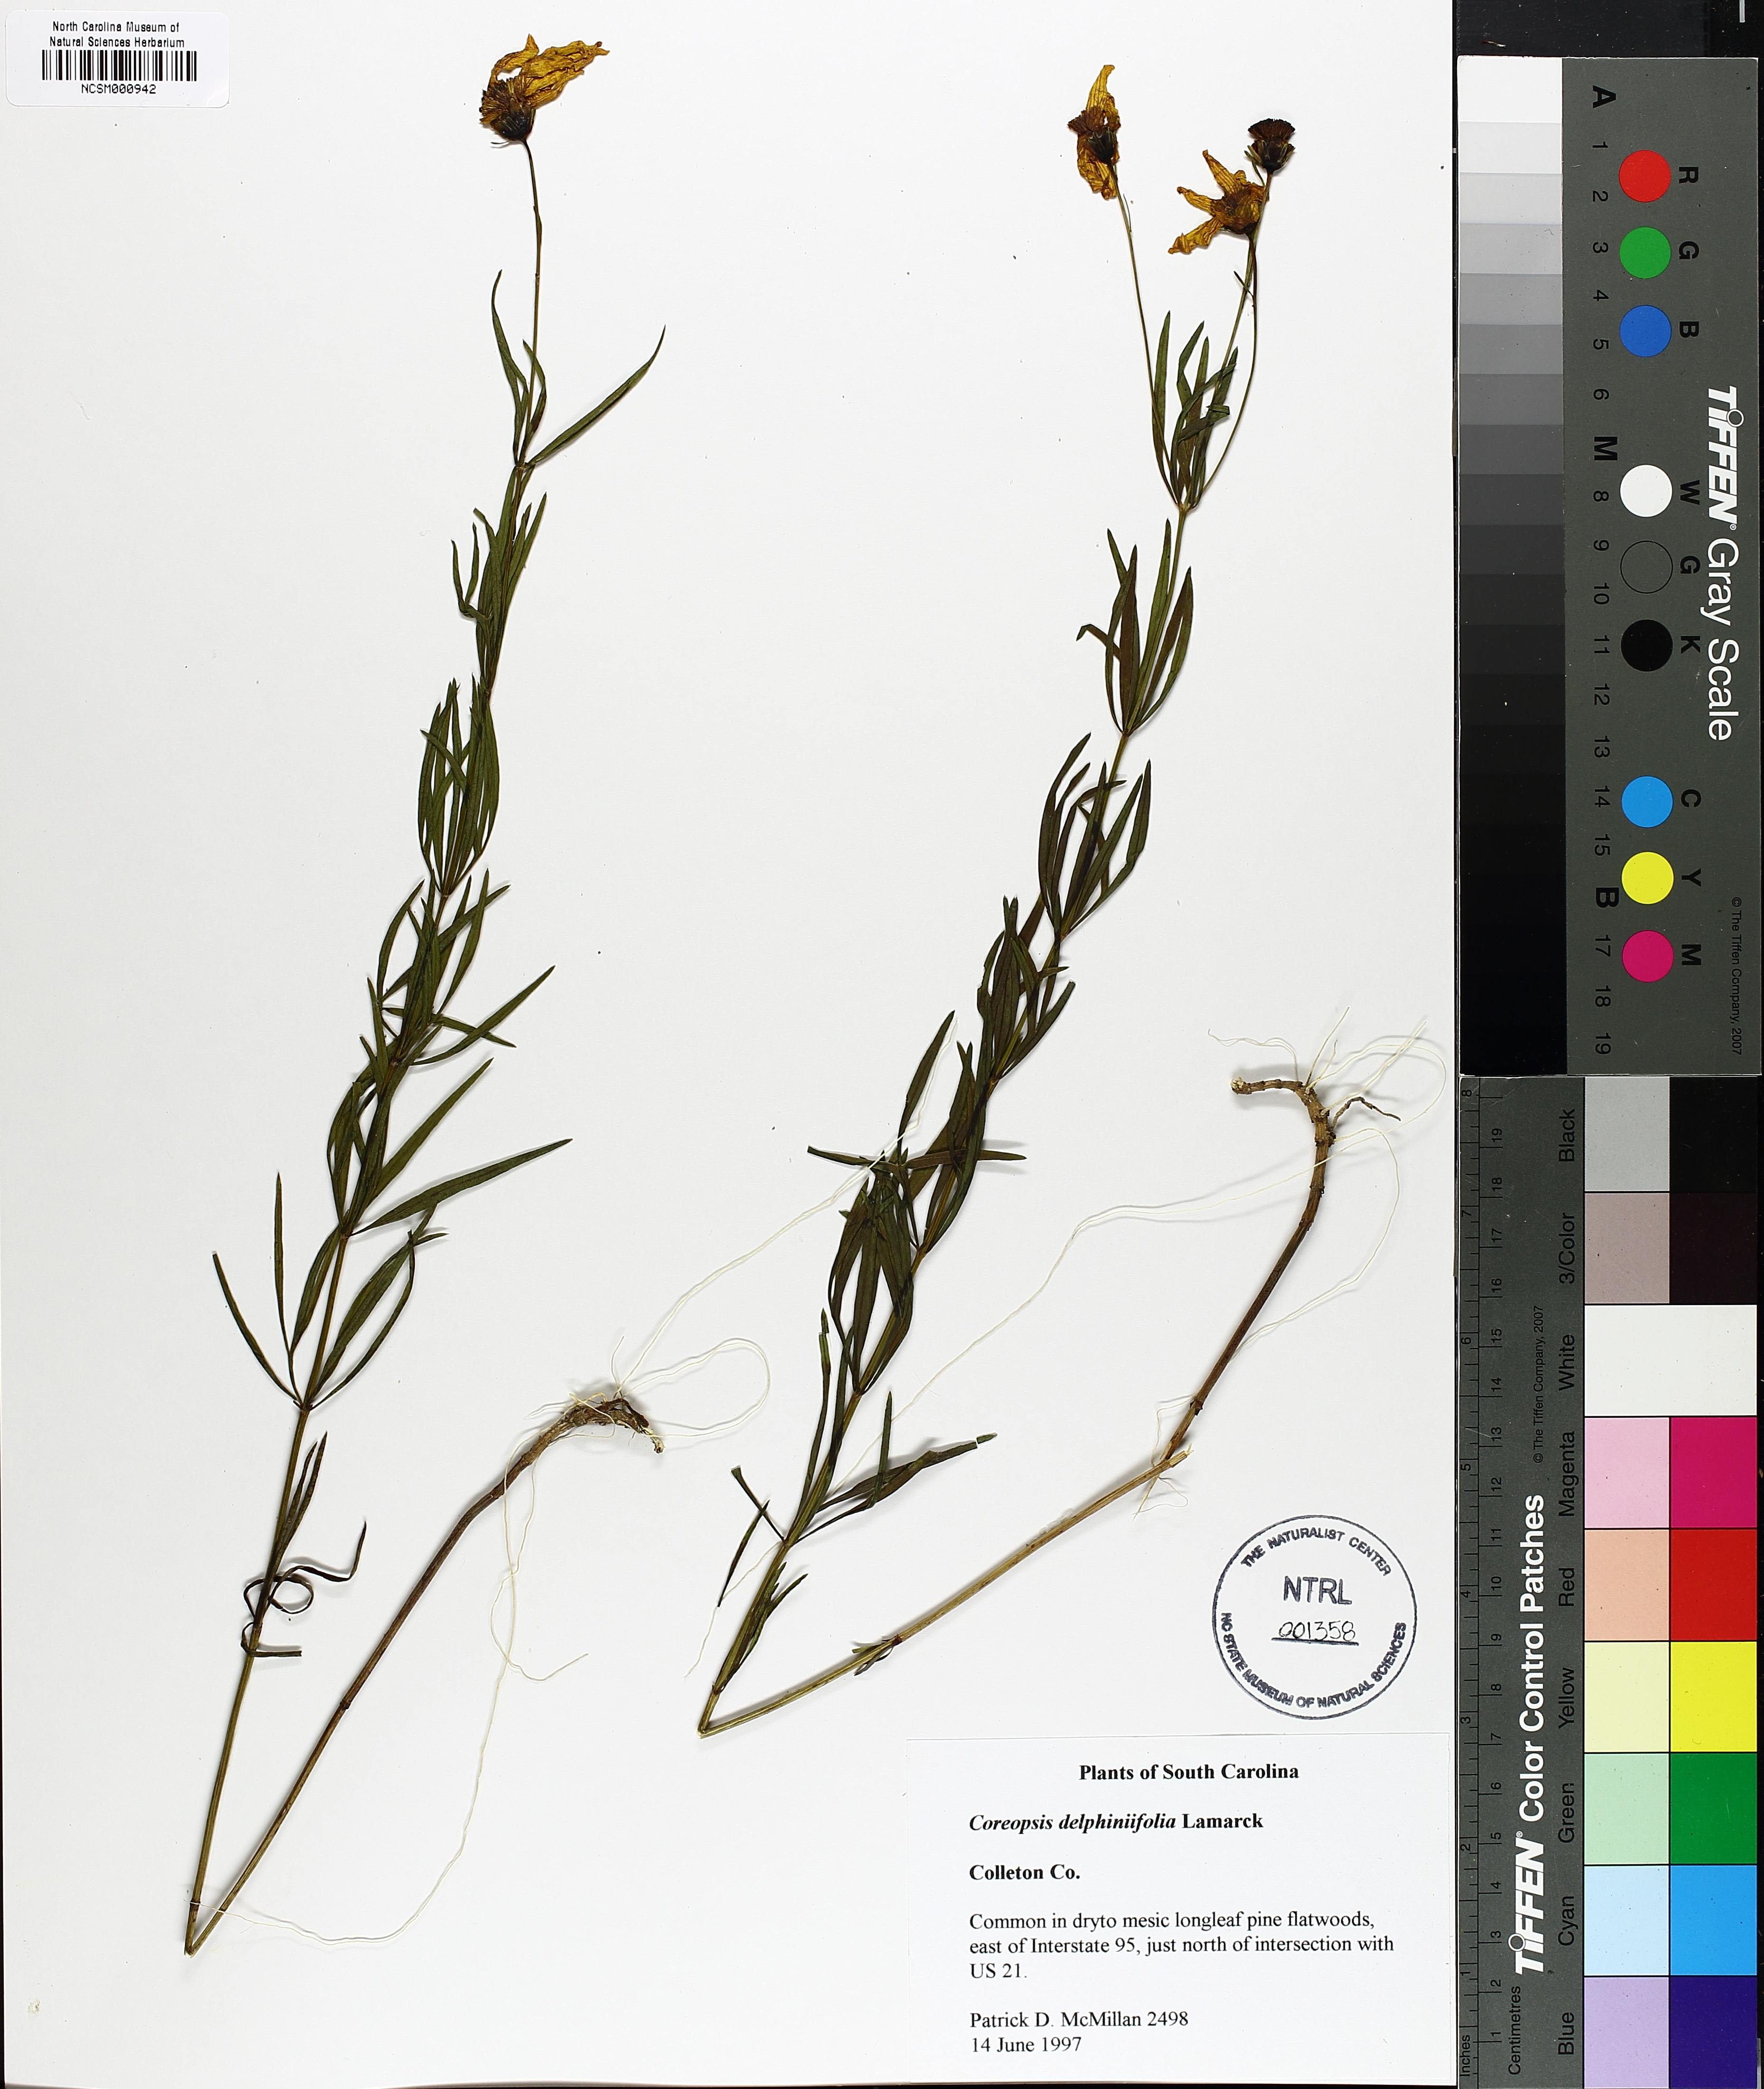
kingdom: Plantae
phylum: Tracheophyta
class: Magnoliopsida
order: Asterales
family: Asteraceae
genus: Coreopsis
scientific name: Coreopsis delphiniifolia
